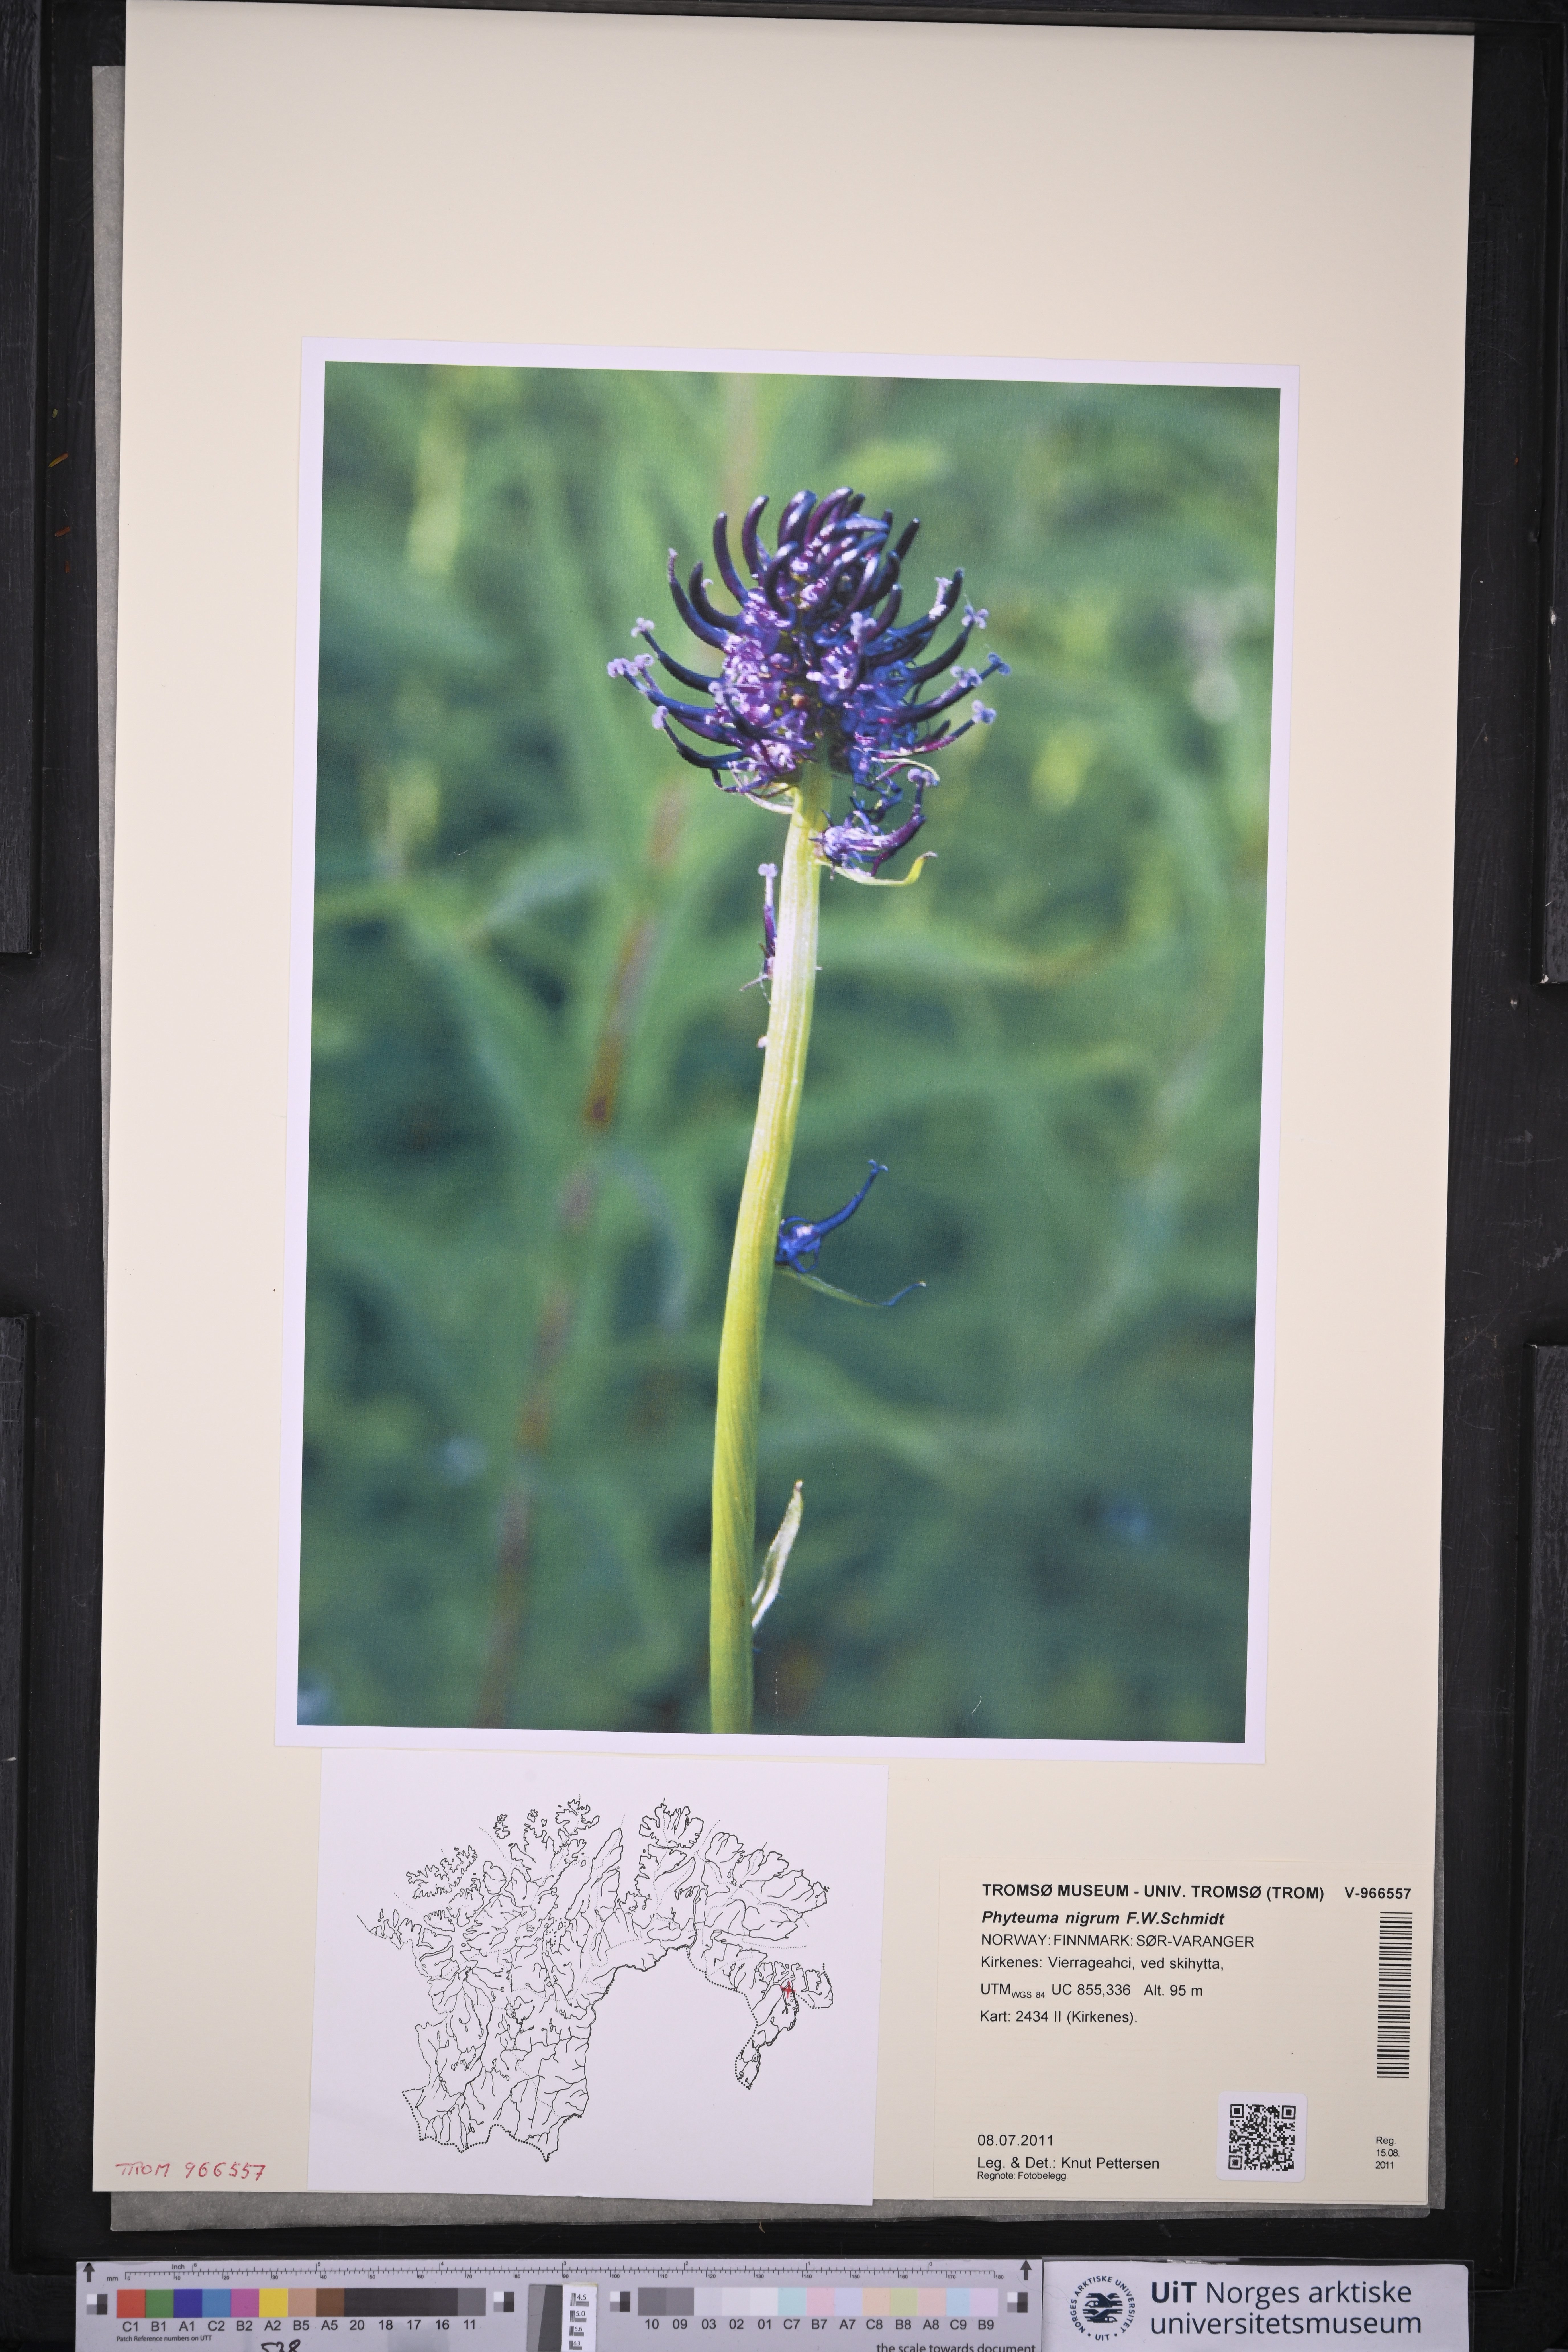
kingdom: Plantae
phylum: Tracheophyta
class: Magnoliopsida
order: Asterales
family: Campanulaceae
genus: Phyteuma
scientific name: Phyteuma nigrum
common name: Black rampion
